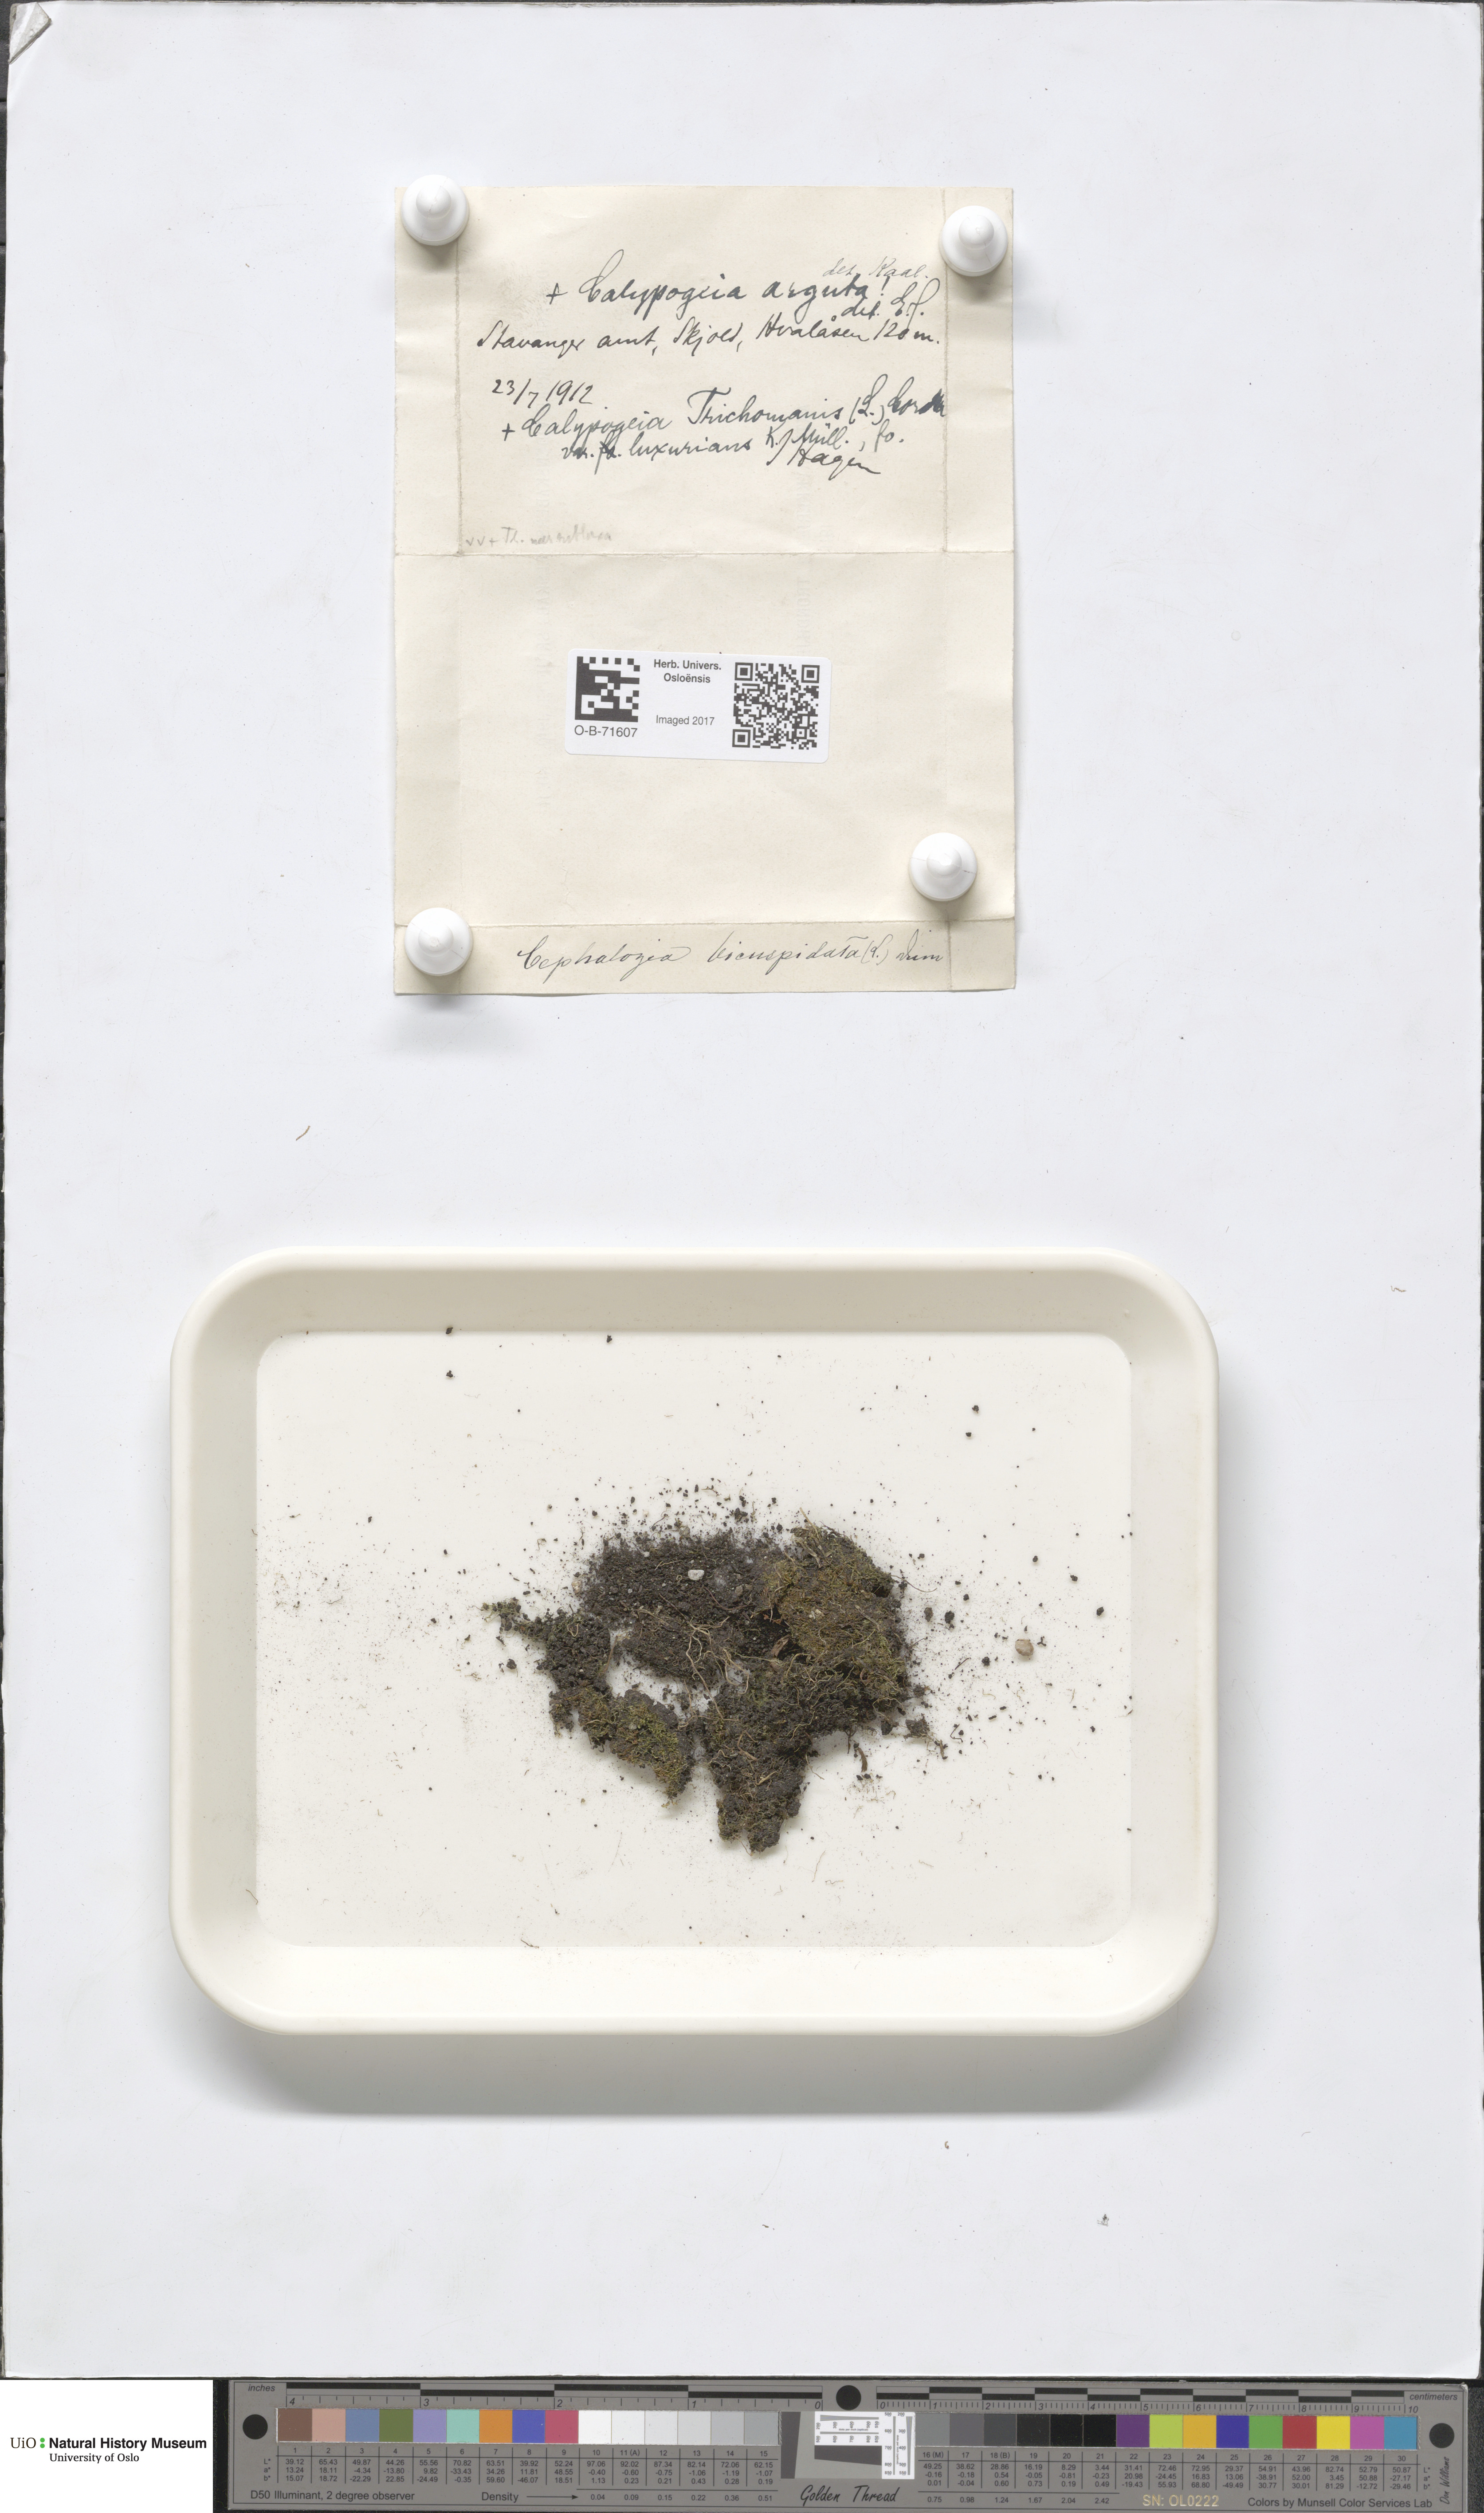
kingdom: Plantae
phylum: Marchantiophyta
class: Jungermanniopsida
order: Jungermanniales
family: Cephaloziaceae
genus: Cephalozia
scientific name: Cephalozia bicuspidata
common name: Two-horned pincerwort
